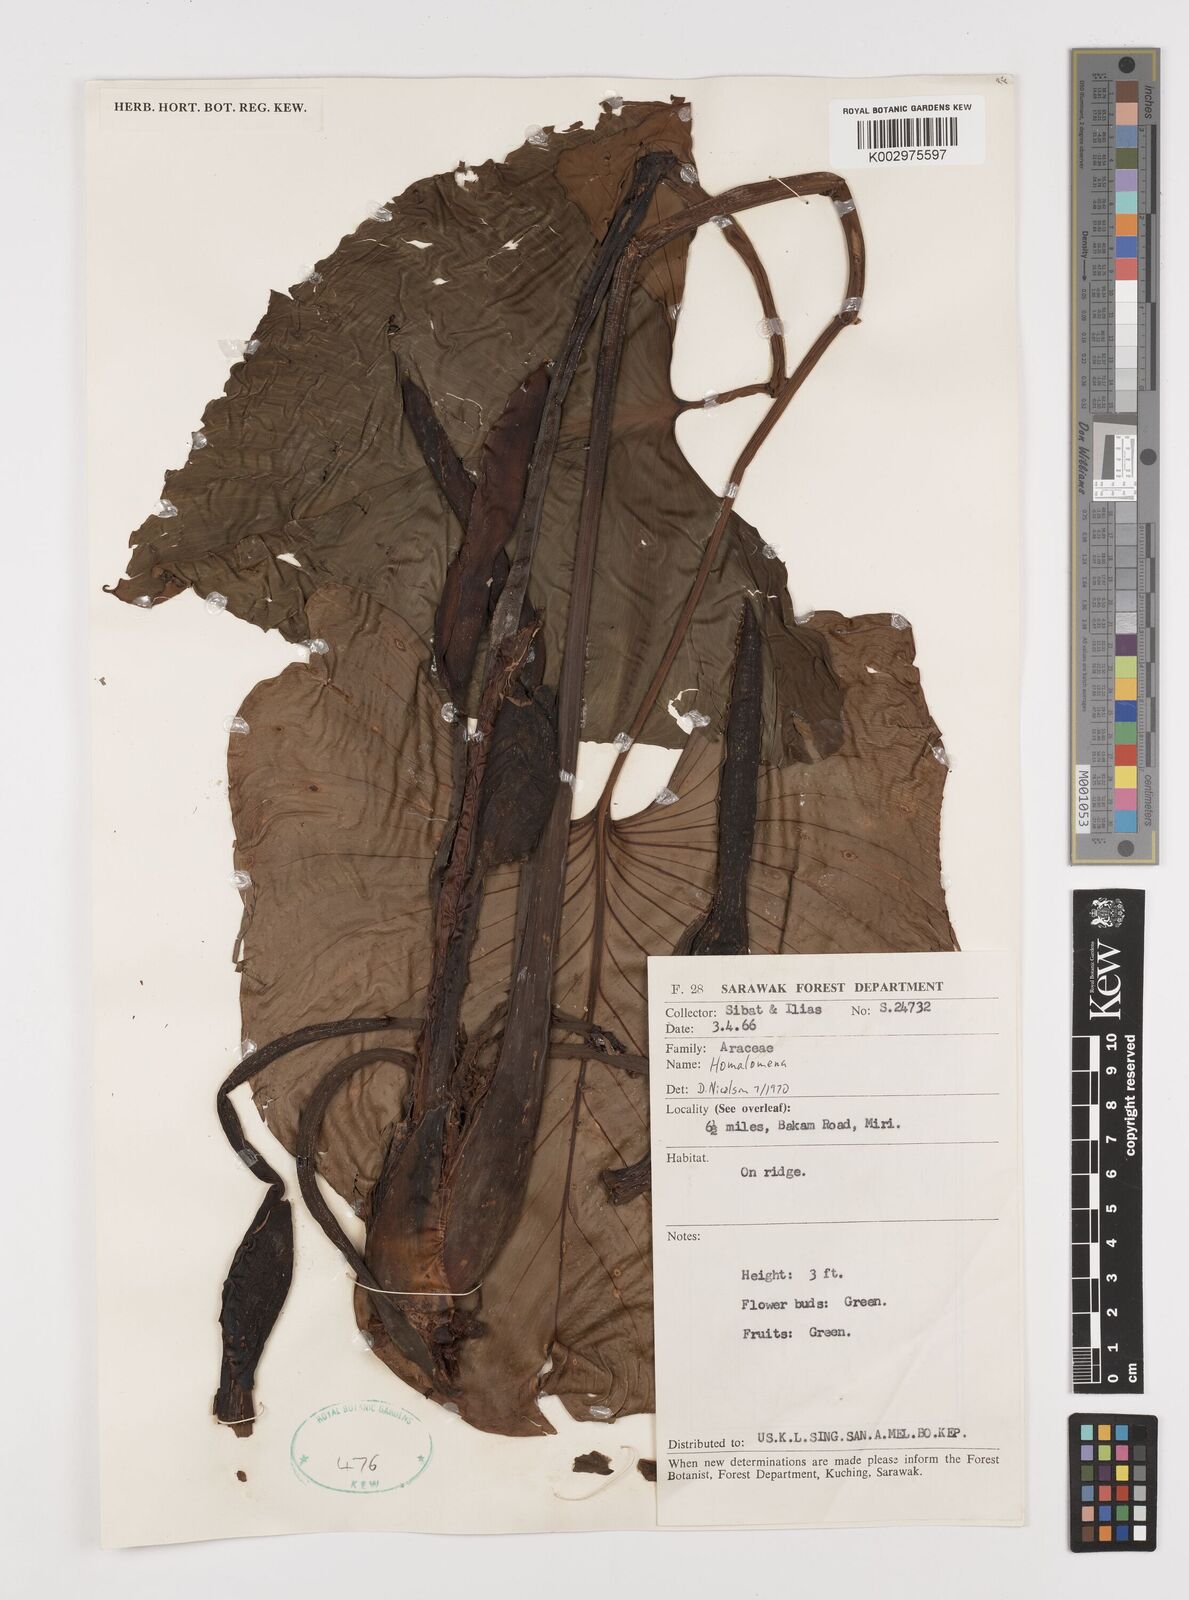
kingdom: Plantae
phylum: Tracheophyta
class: Liliopsida
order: Alismatales
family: Araceae
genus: Homalomena
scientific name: Homalomena
